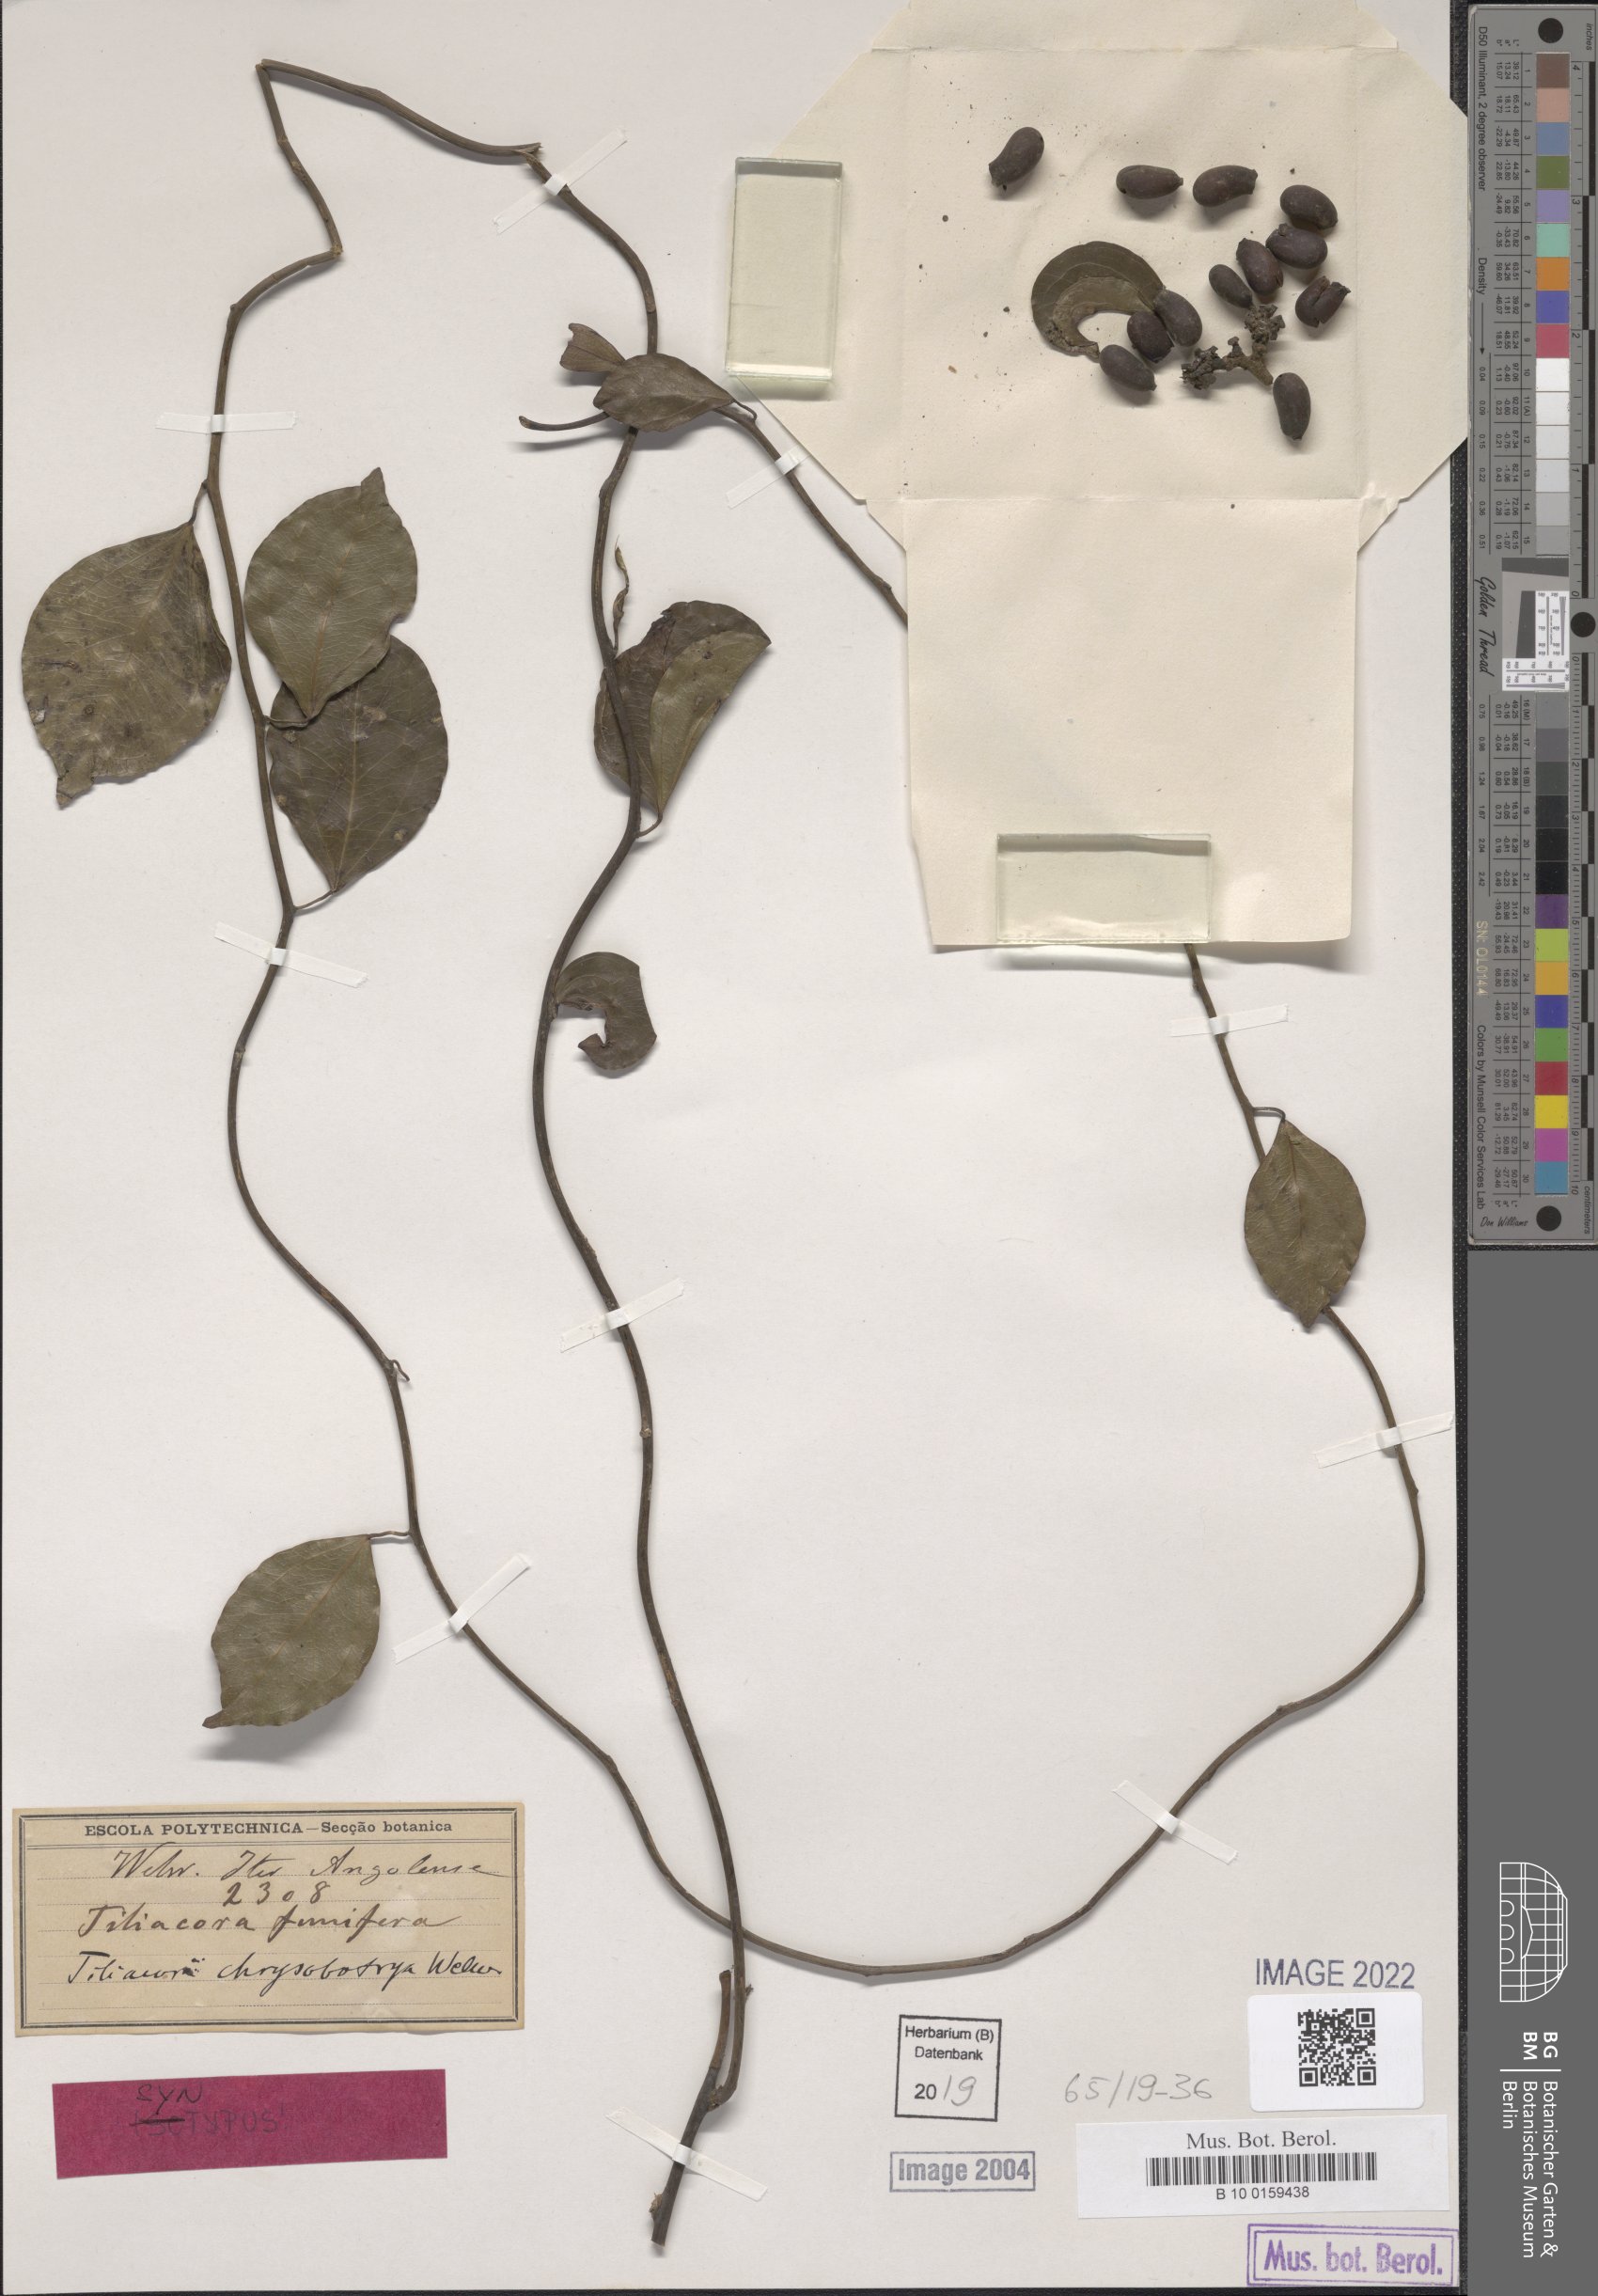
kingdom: Plantae
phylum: Tracheophyta
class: Magnoliopsida
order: Ranunculales
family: Menispermaceae
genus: Tiliacora
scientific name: Tiliacora chrysobotrya
